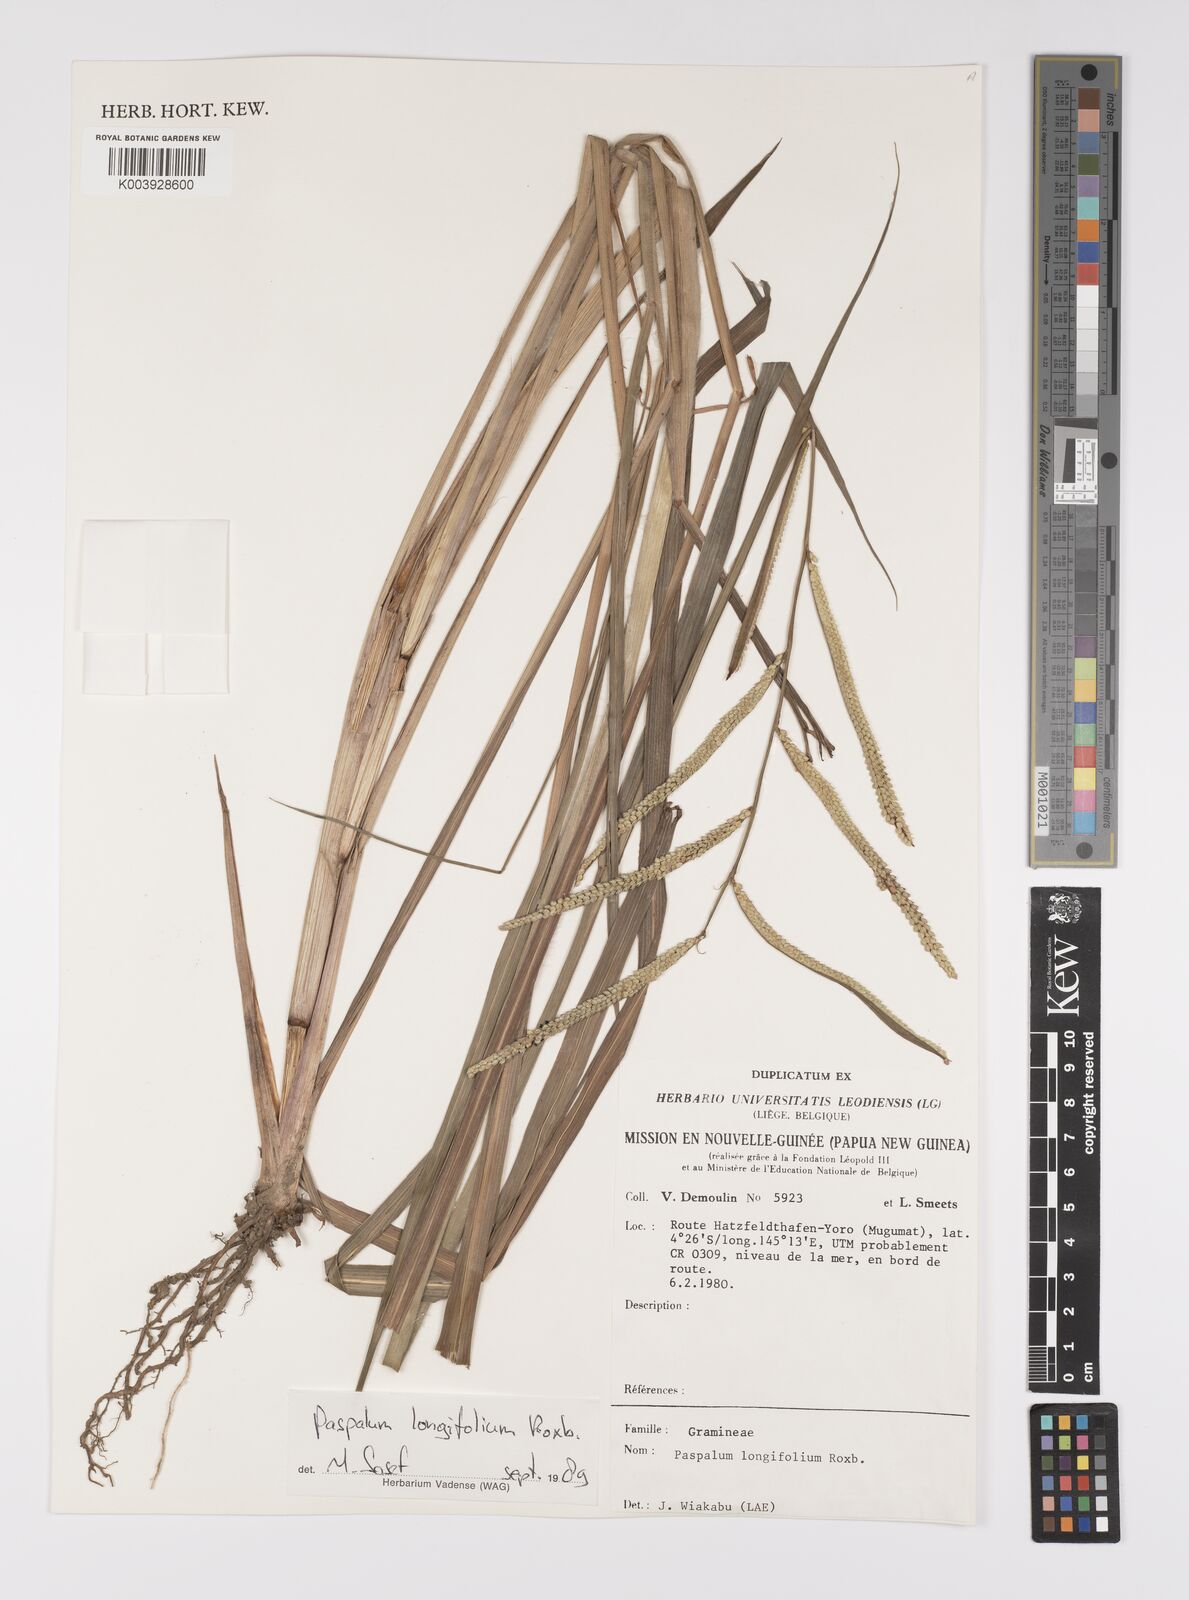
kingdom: Plantae
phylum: Tracheophyta
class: Liliopsida
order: Poales
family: Poaceae
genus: Paspalum
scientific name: Paspalum sumatrense
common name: Long-leaved paspalum
